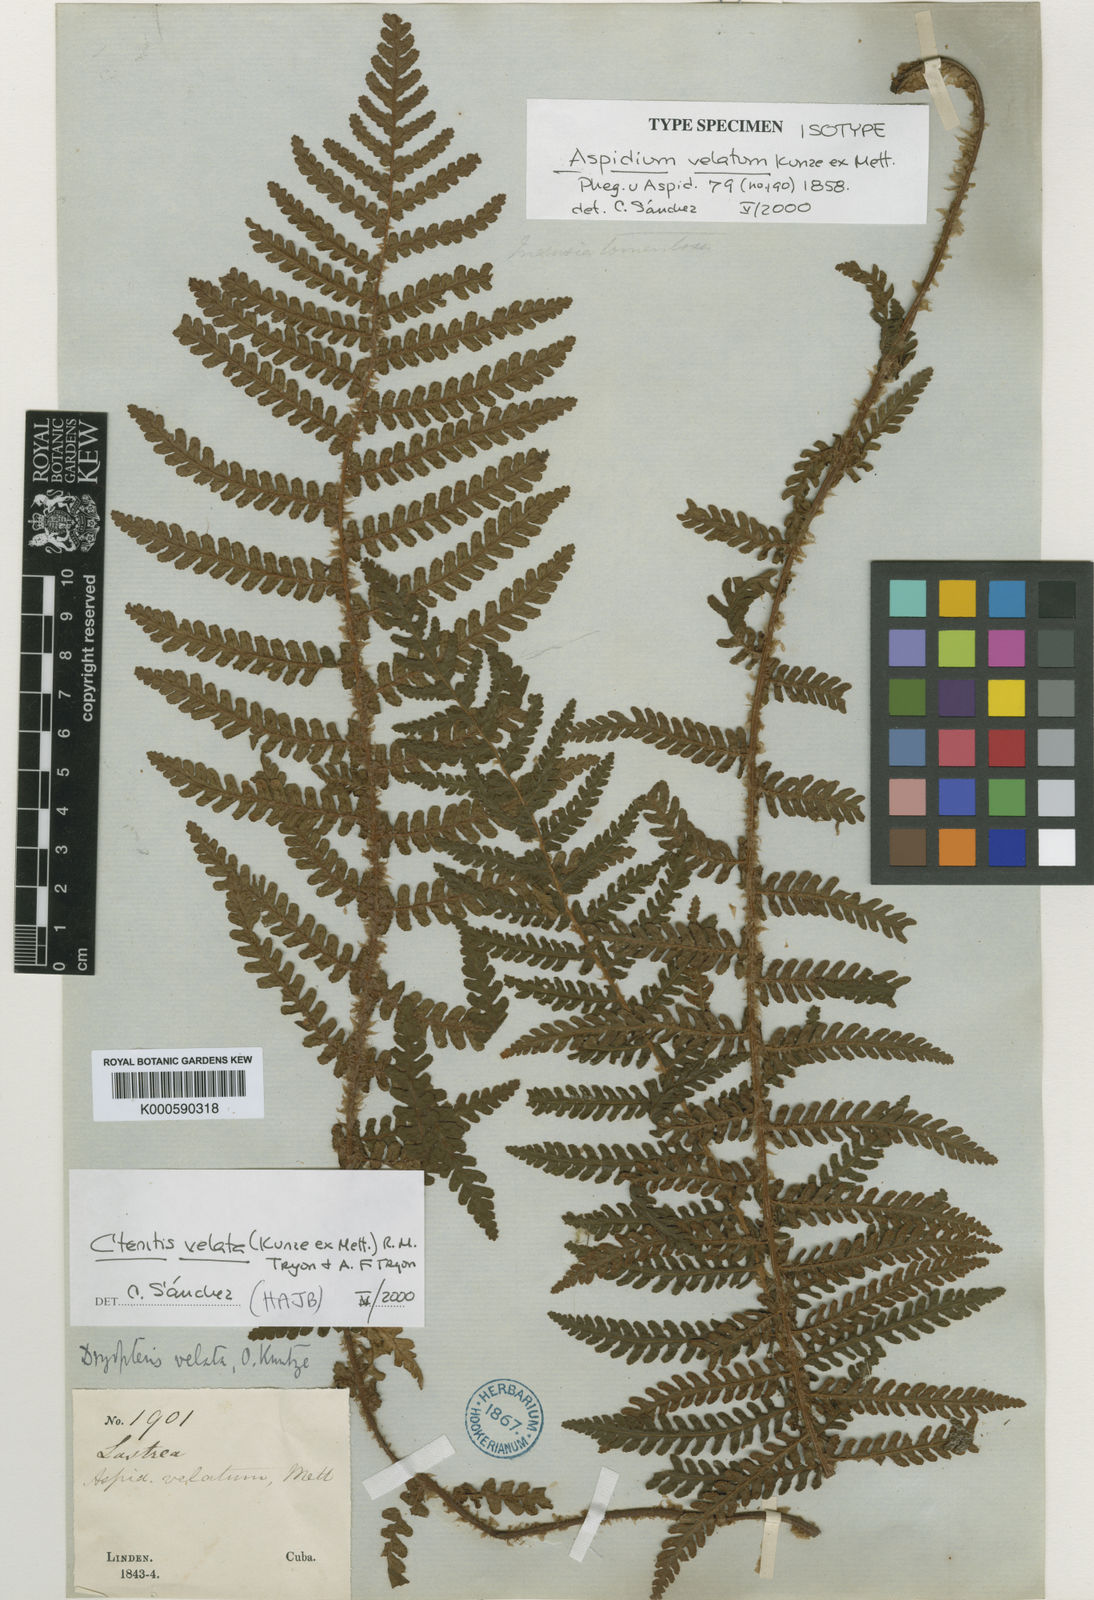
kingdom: Plantae
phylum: Tracheophyta
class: Polypodiopsida
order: Polypodiales
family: Dryopteridaceae
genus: Ctenitis
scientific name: Ctenitis velata
